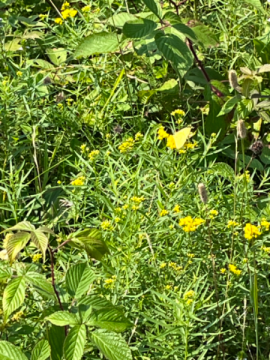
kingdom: Animalia
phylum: Arthropoda
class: Insecta
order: Lepidoptera
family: Pieridae
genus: Colias
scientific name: Colias
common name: Clouded Yellows
